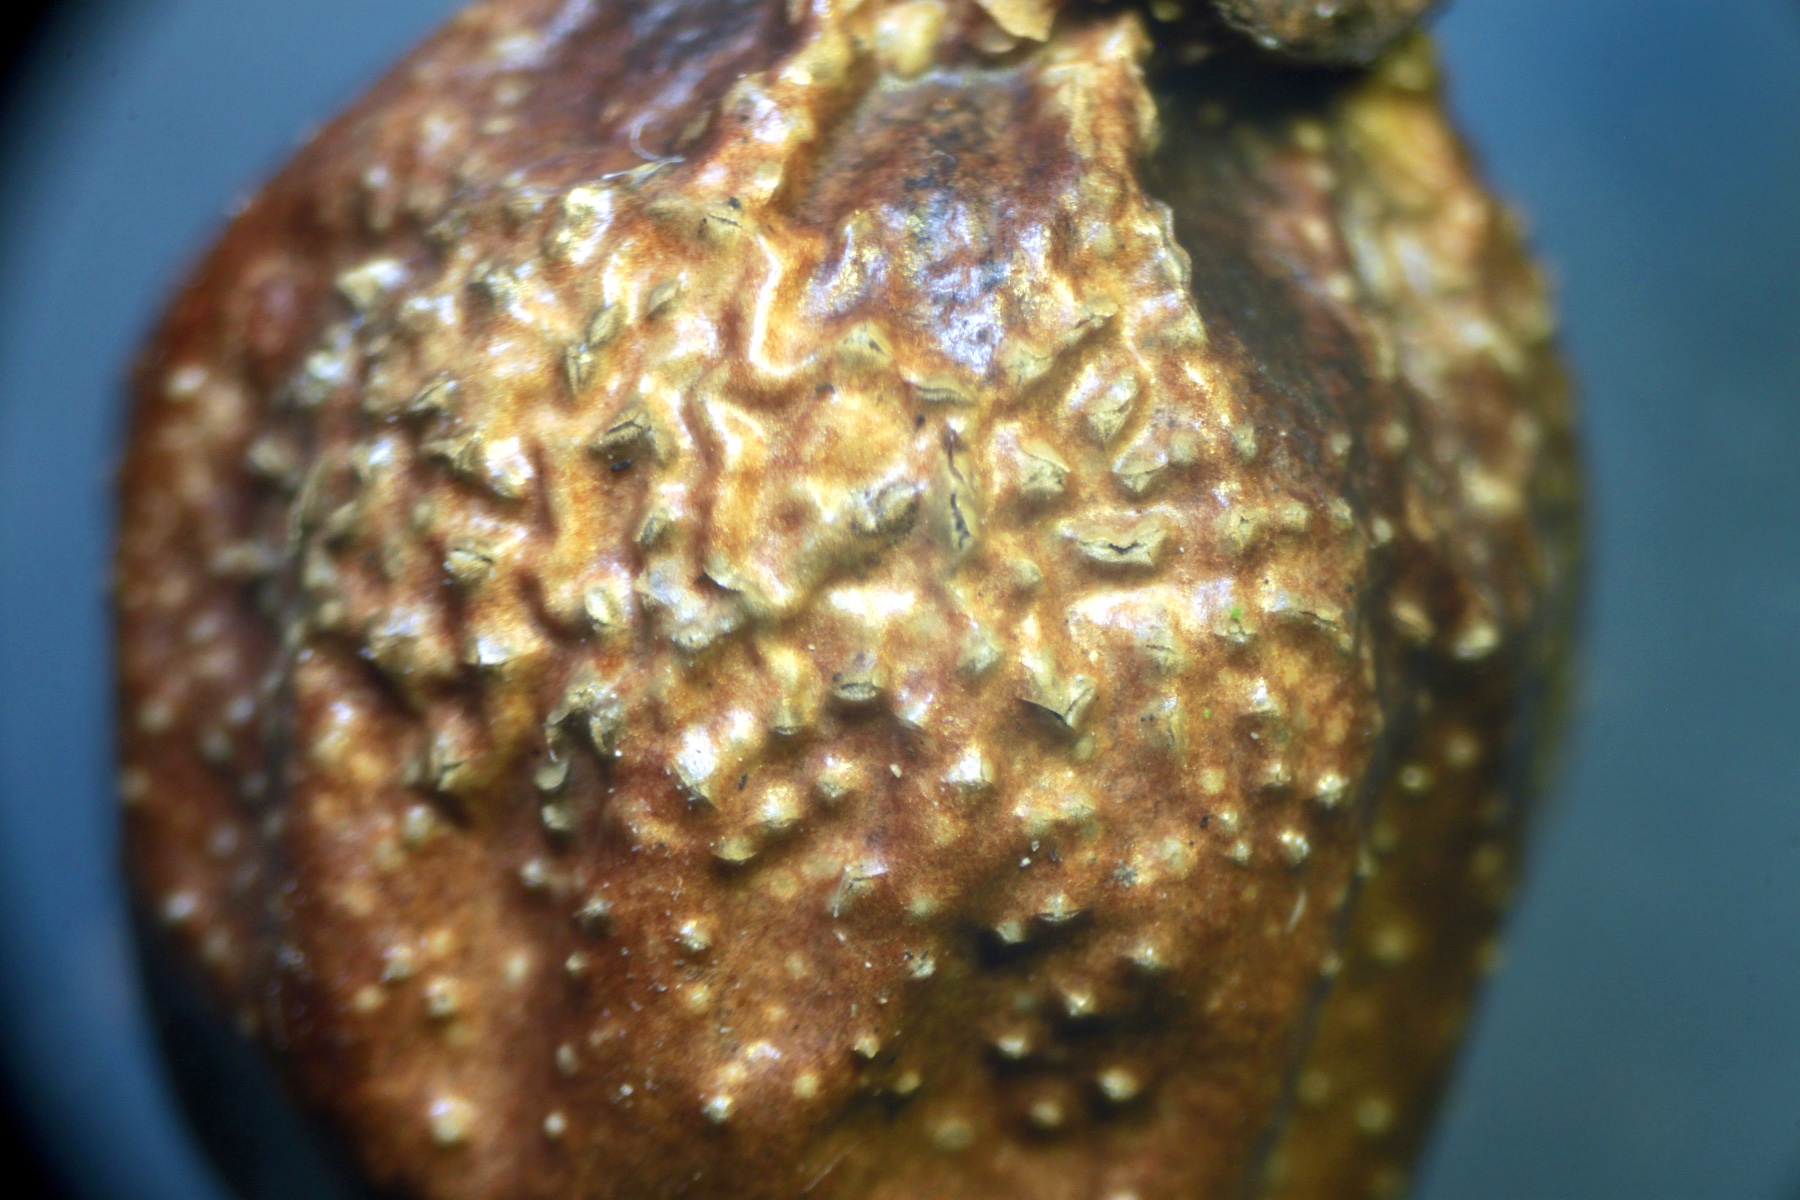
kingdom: Fungi
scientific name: Fungi
